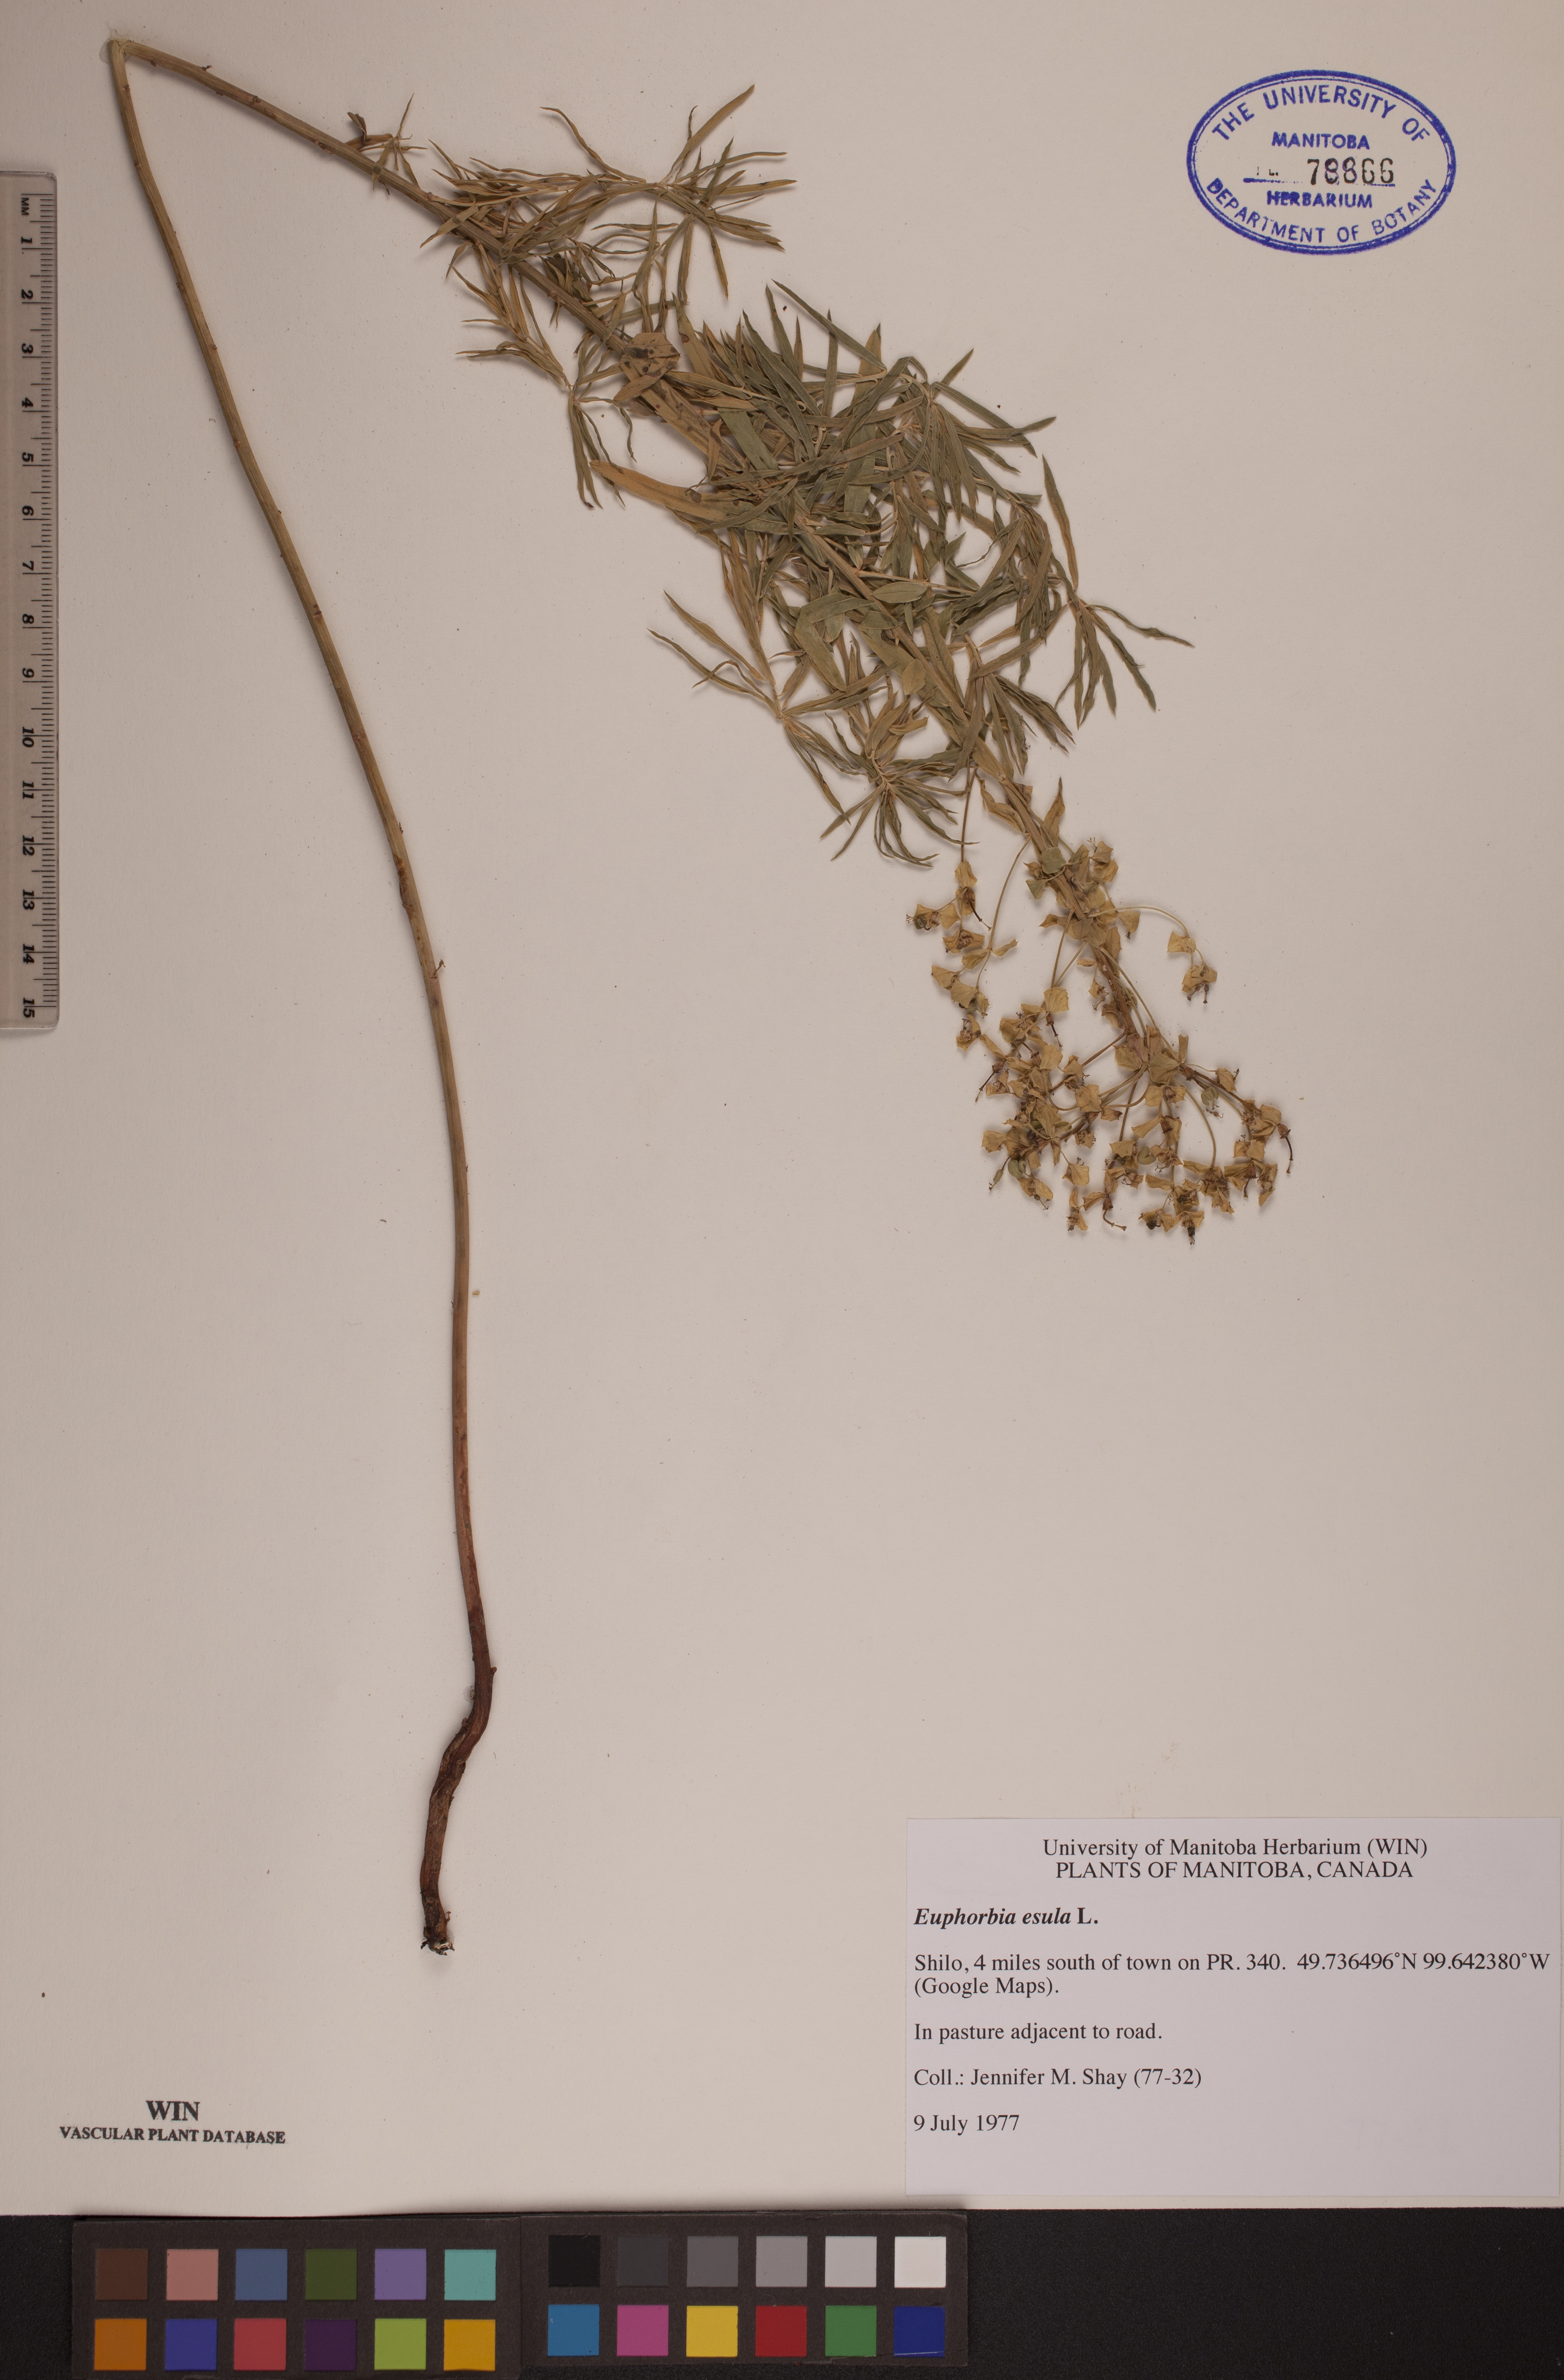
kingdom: Plantae
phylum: Tracheophyta
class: Magnoliopsida
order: Malpighiales
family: Euphorbiaceae
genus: Euphorbia
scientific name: Euphorbia esula
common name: Leafy spurge
